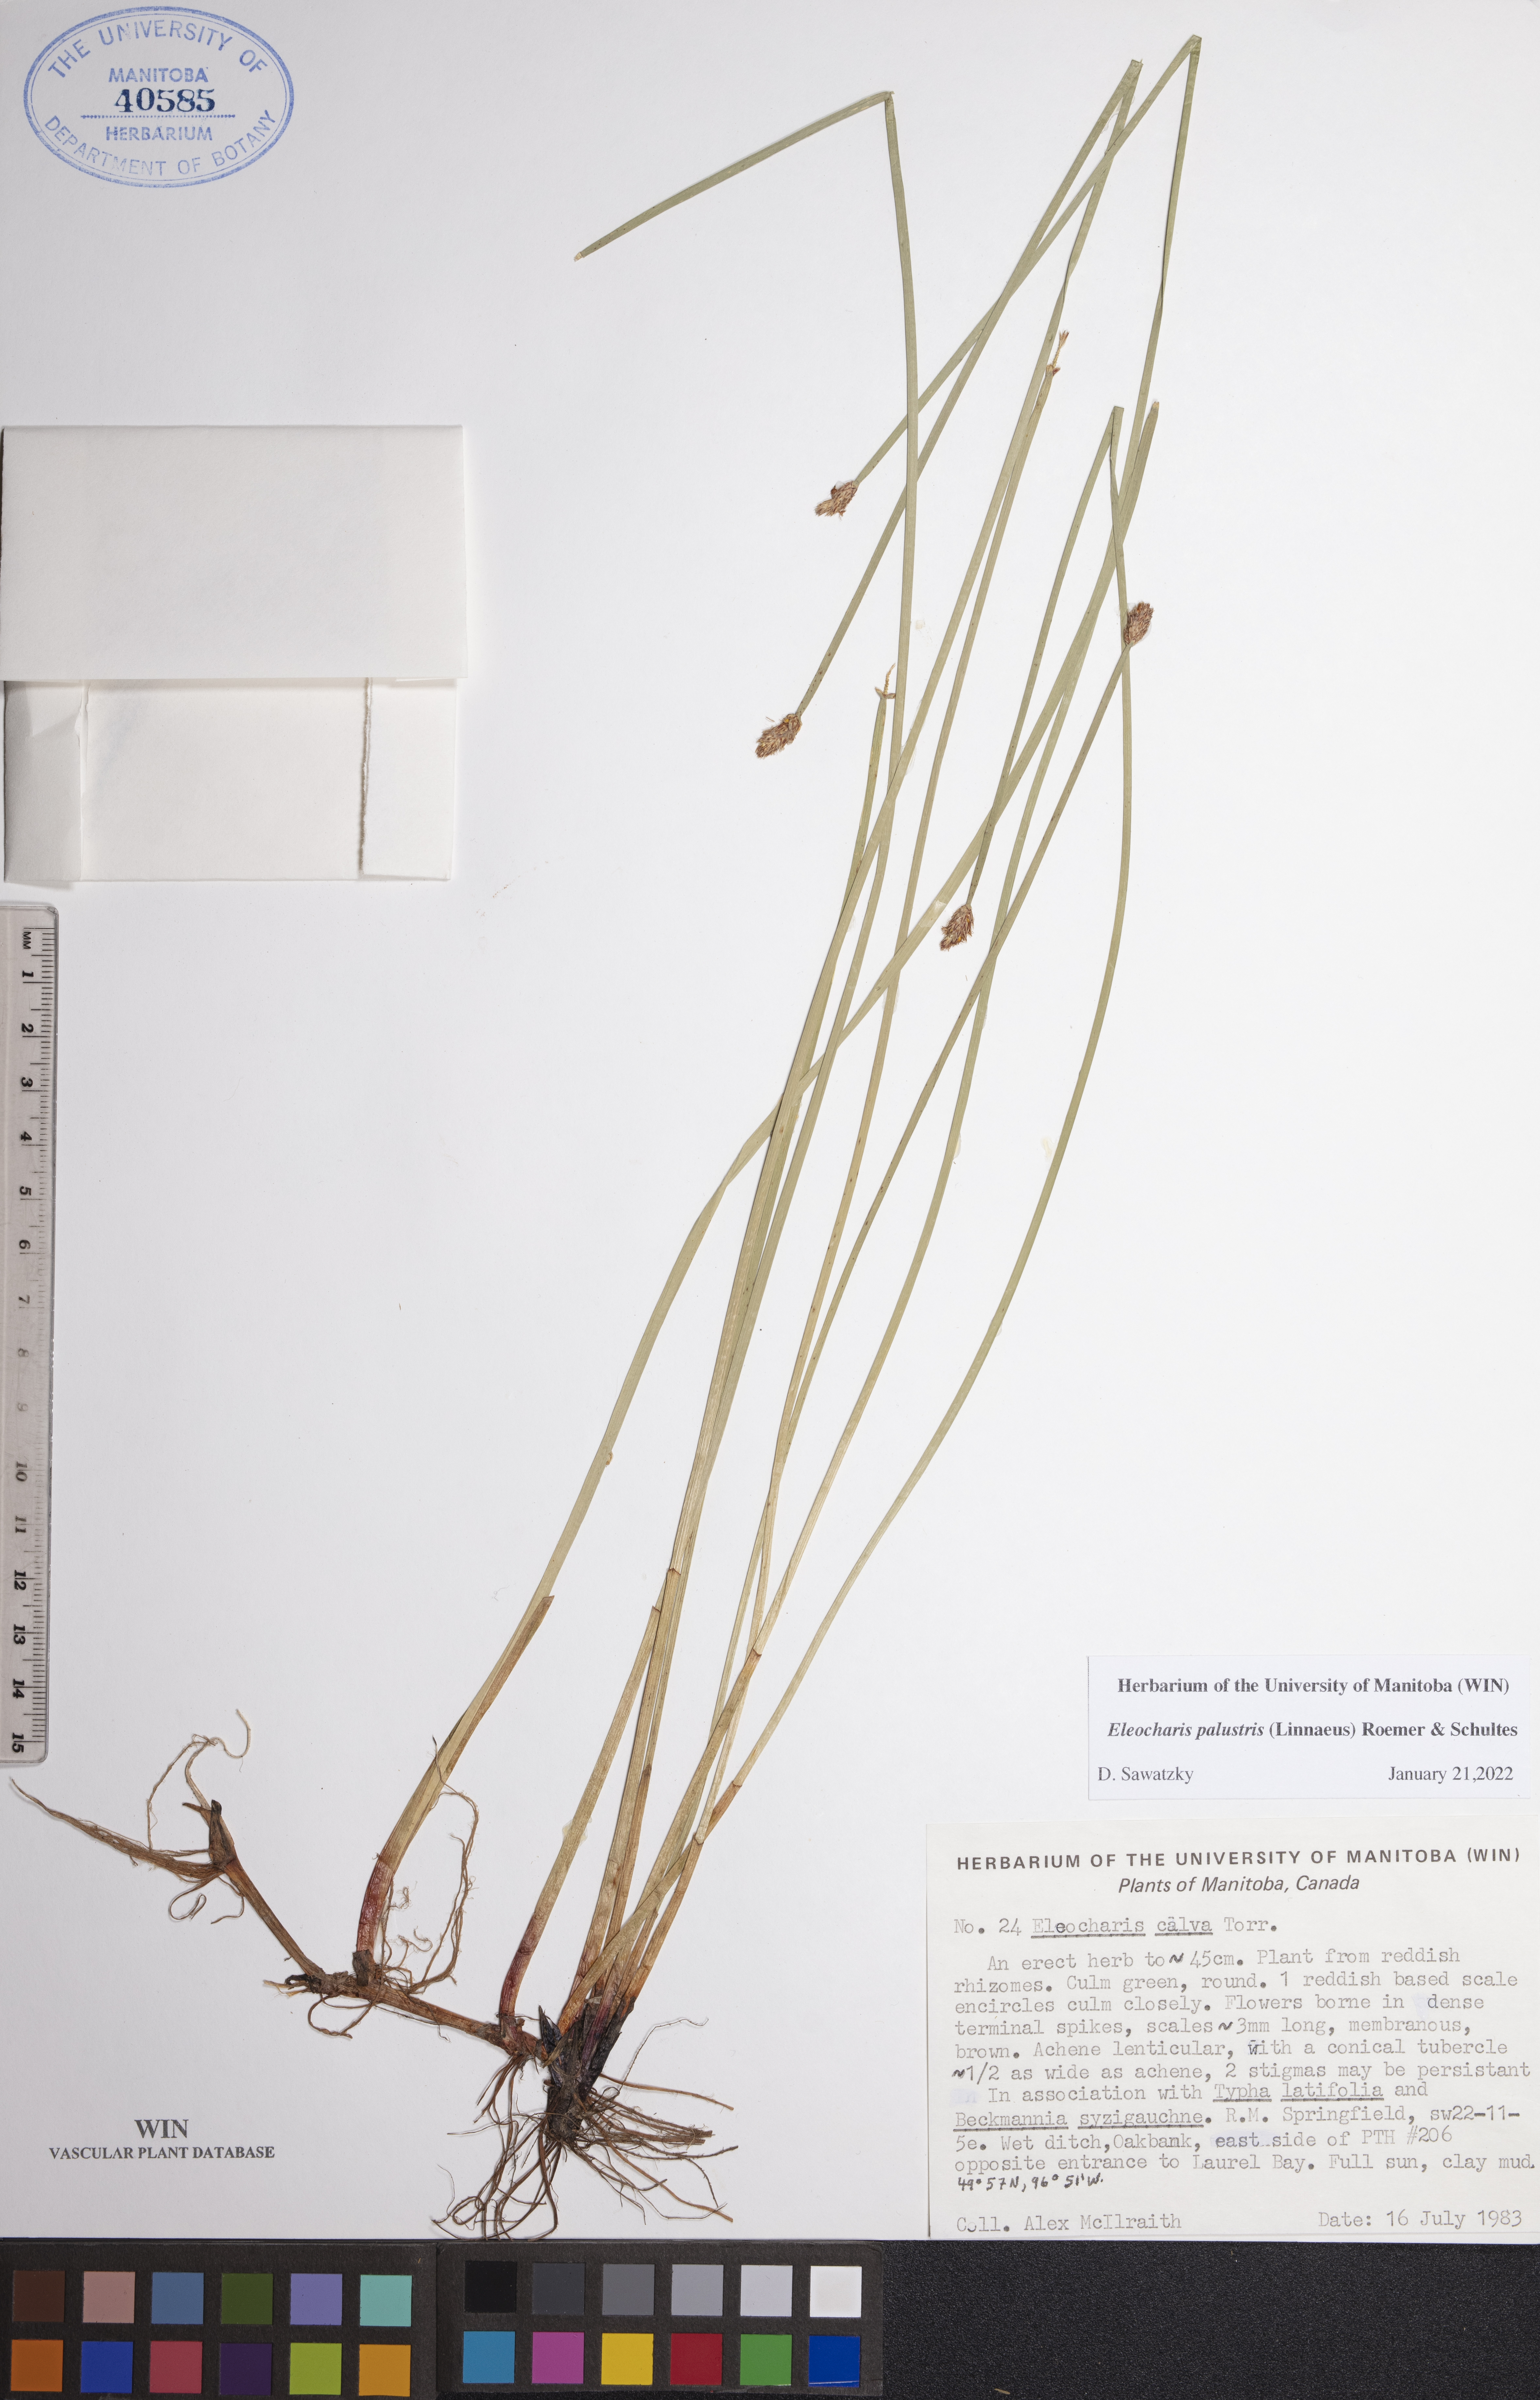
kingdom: Plantae
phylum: Tracheophyta
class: Liliopsida
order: Poales
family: Cyperaceae
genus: Eleocharis
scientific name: Eleocharis palustris
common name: Common spike-rush
